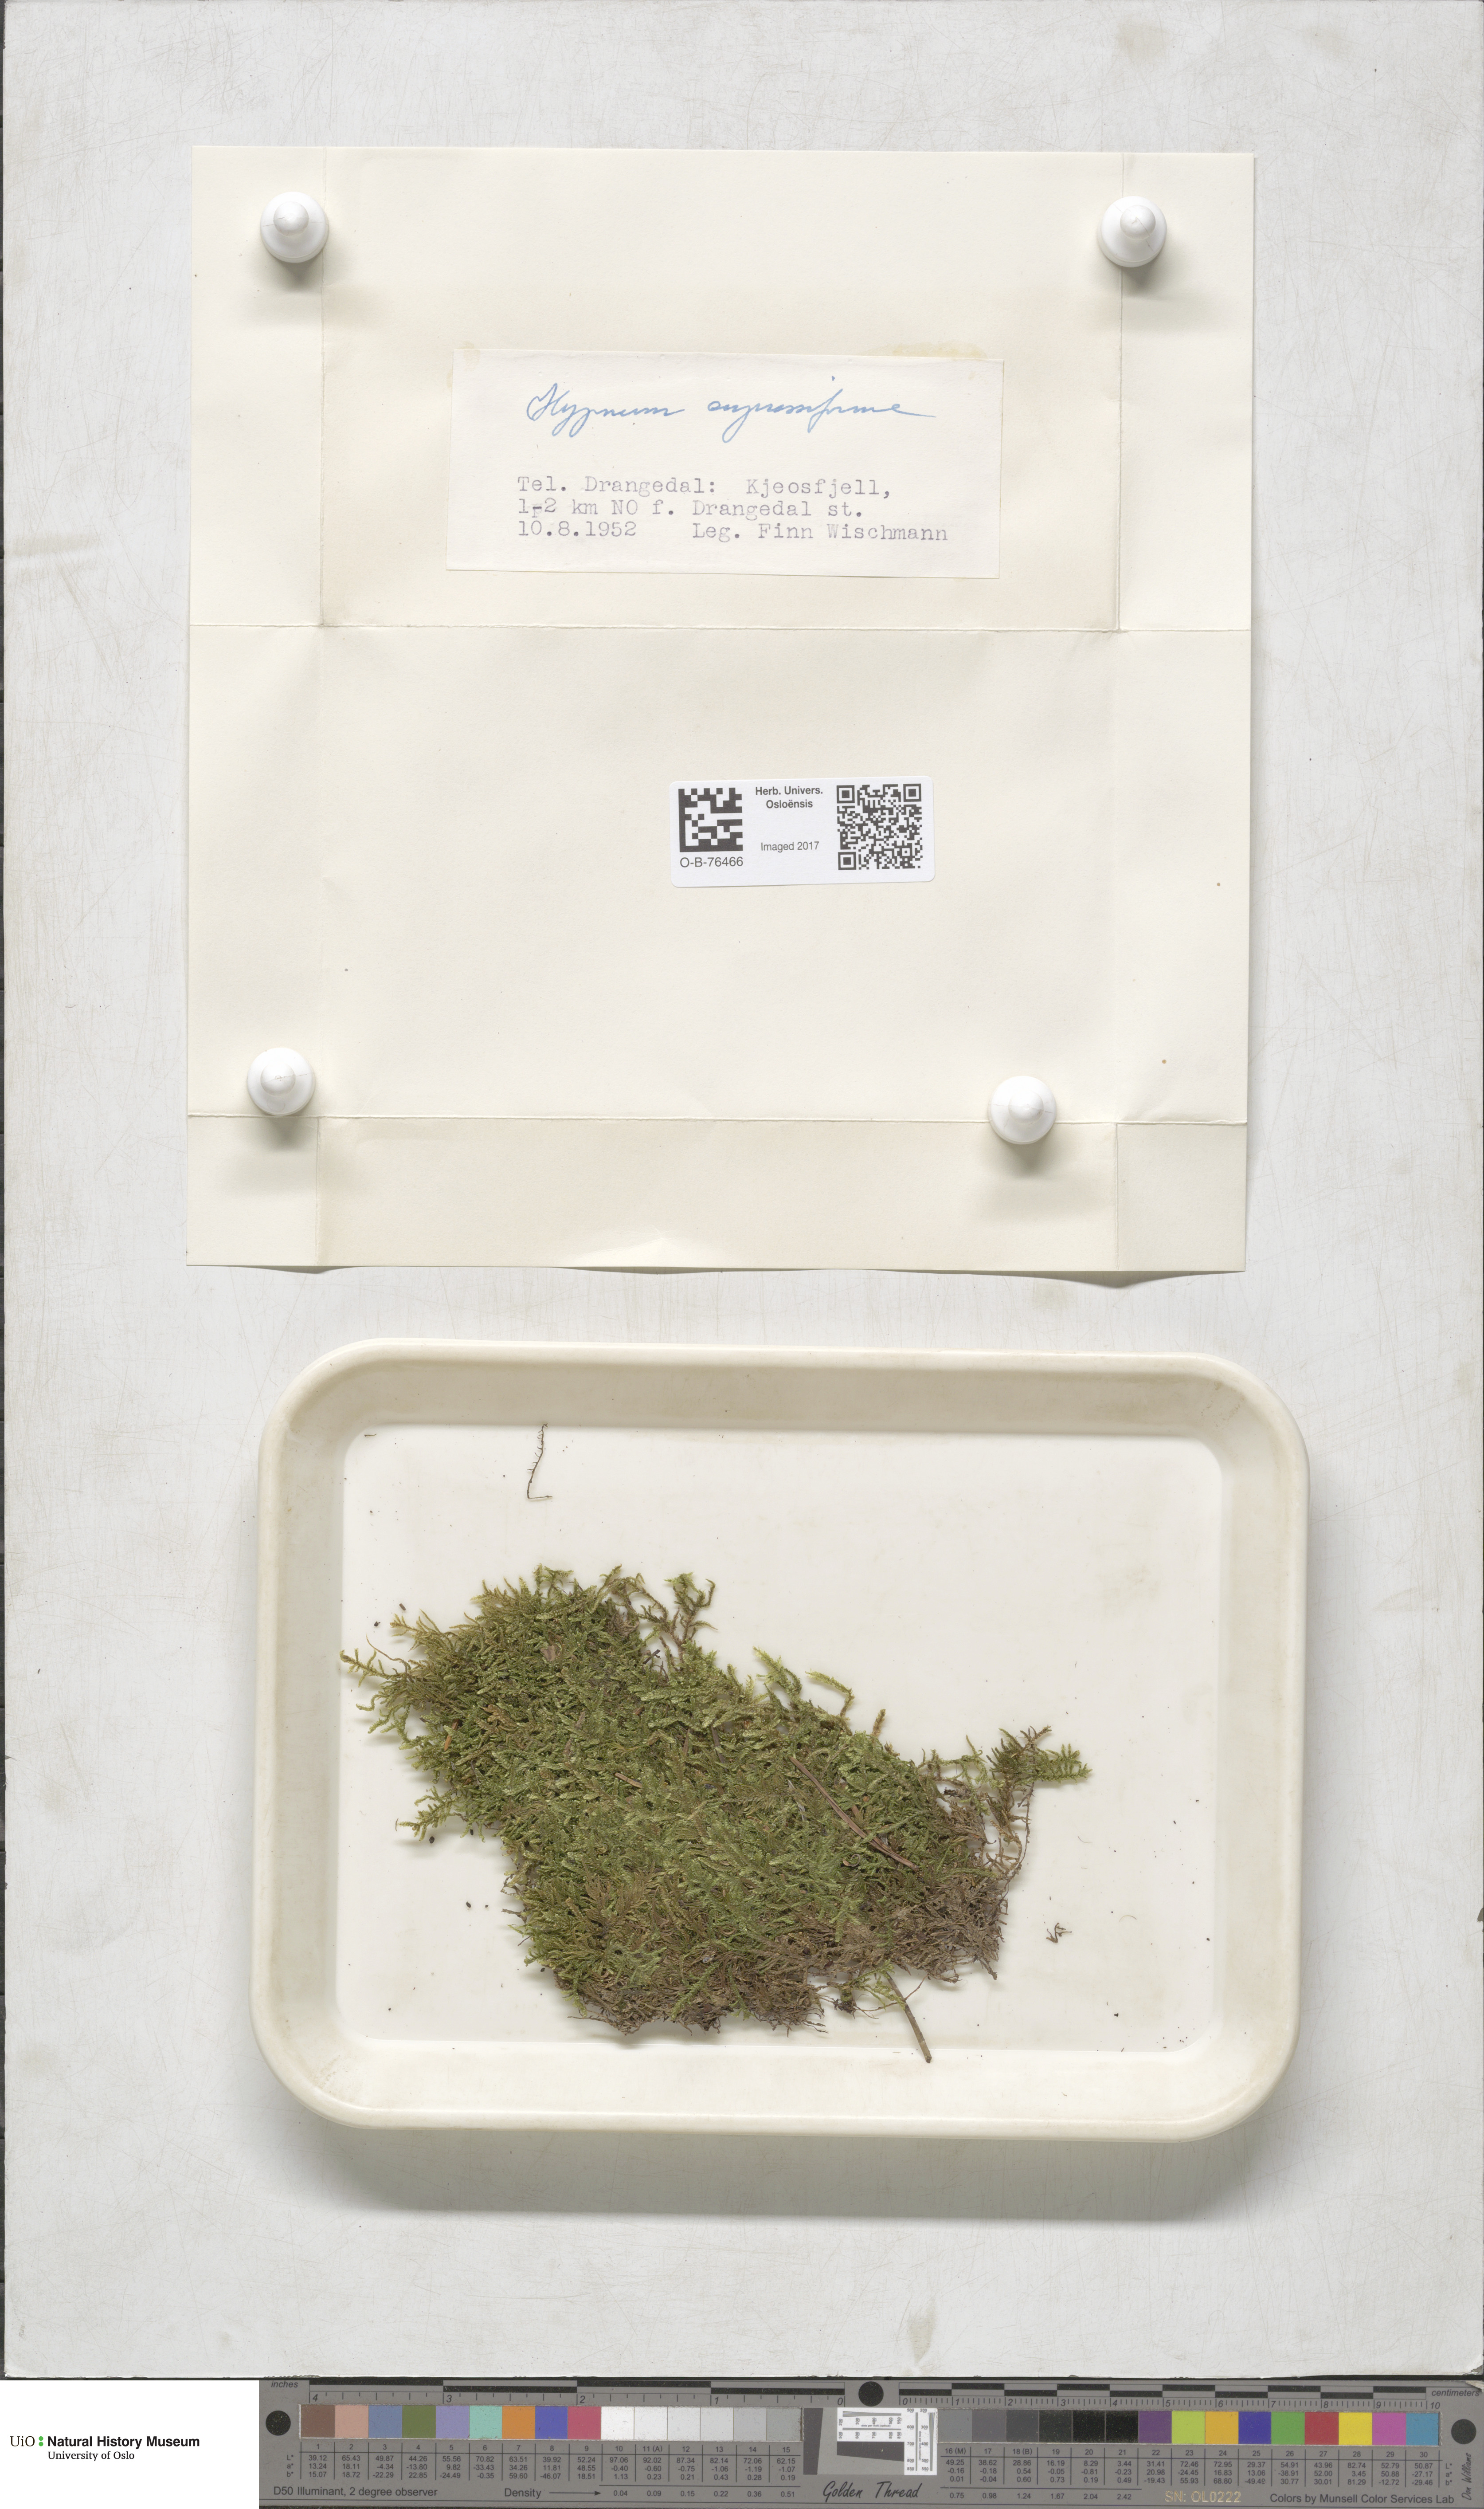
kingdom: Plantae
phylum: Bryophyta
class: Bryopsida
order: Hypnales
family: Hypnaceae
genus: Hypnum
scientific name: Hypnum cupressiforme
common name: Cypress-leaved plait-moss
